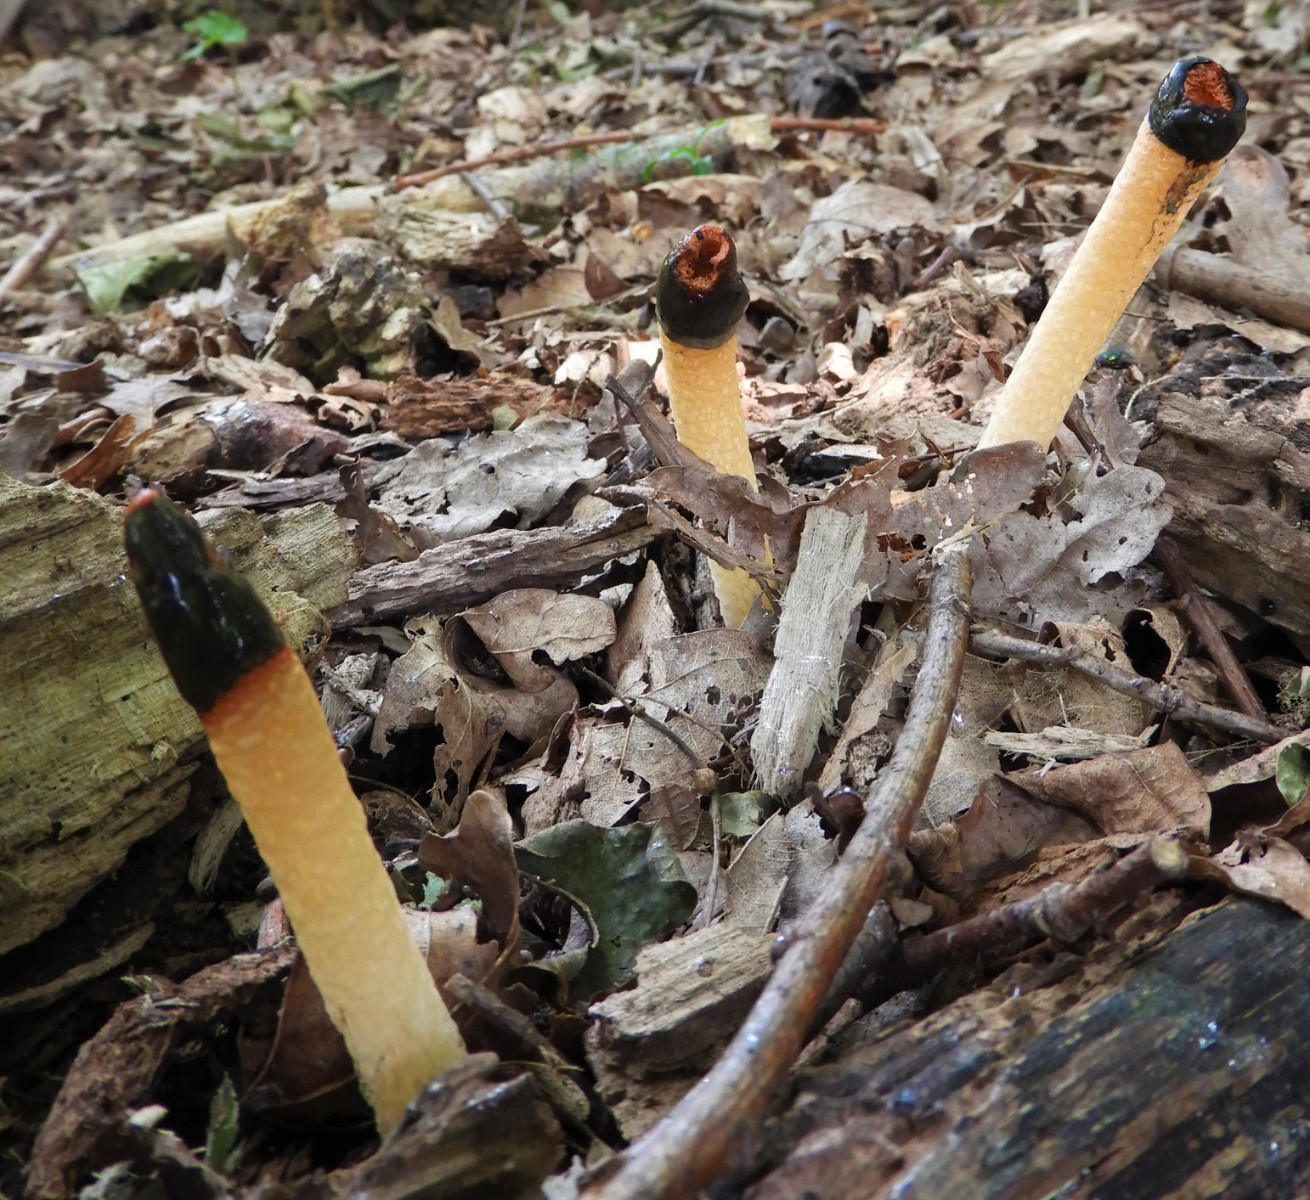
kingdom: Fungi
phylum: Basidiomycota
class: Agaricomycetes
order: Phallales
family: Phallaceae
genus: Mutinus
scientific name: Mutinus caninus
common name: hunde-stinksvamp
